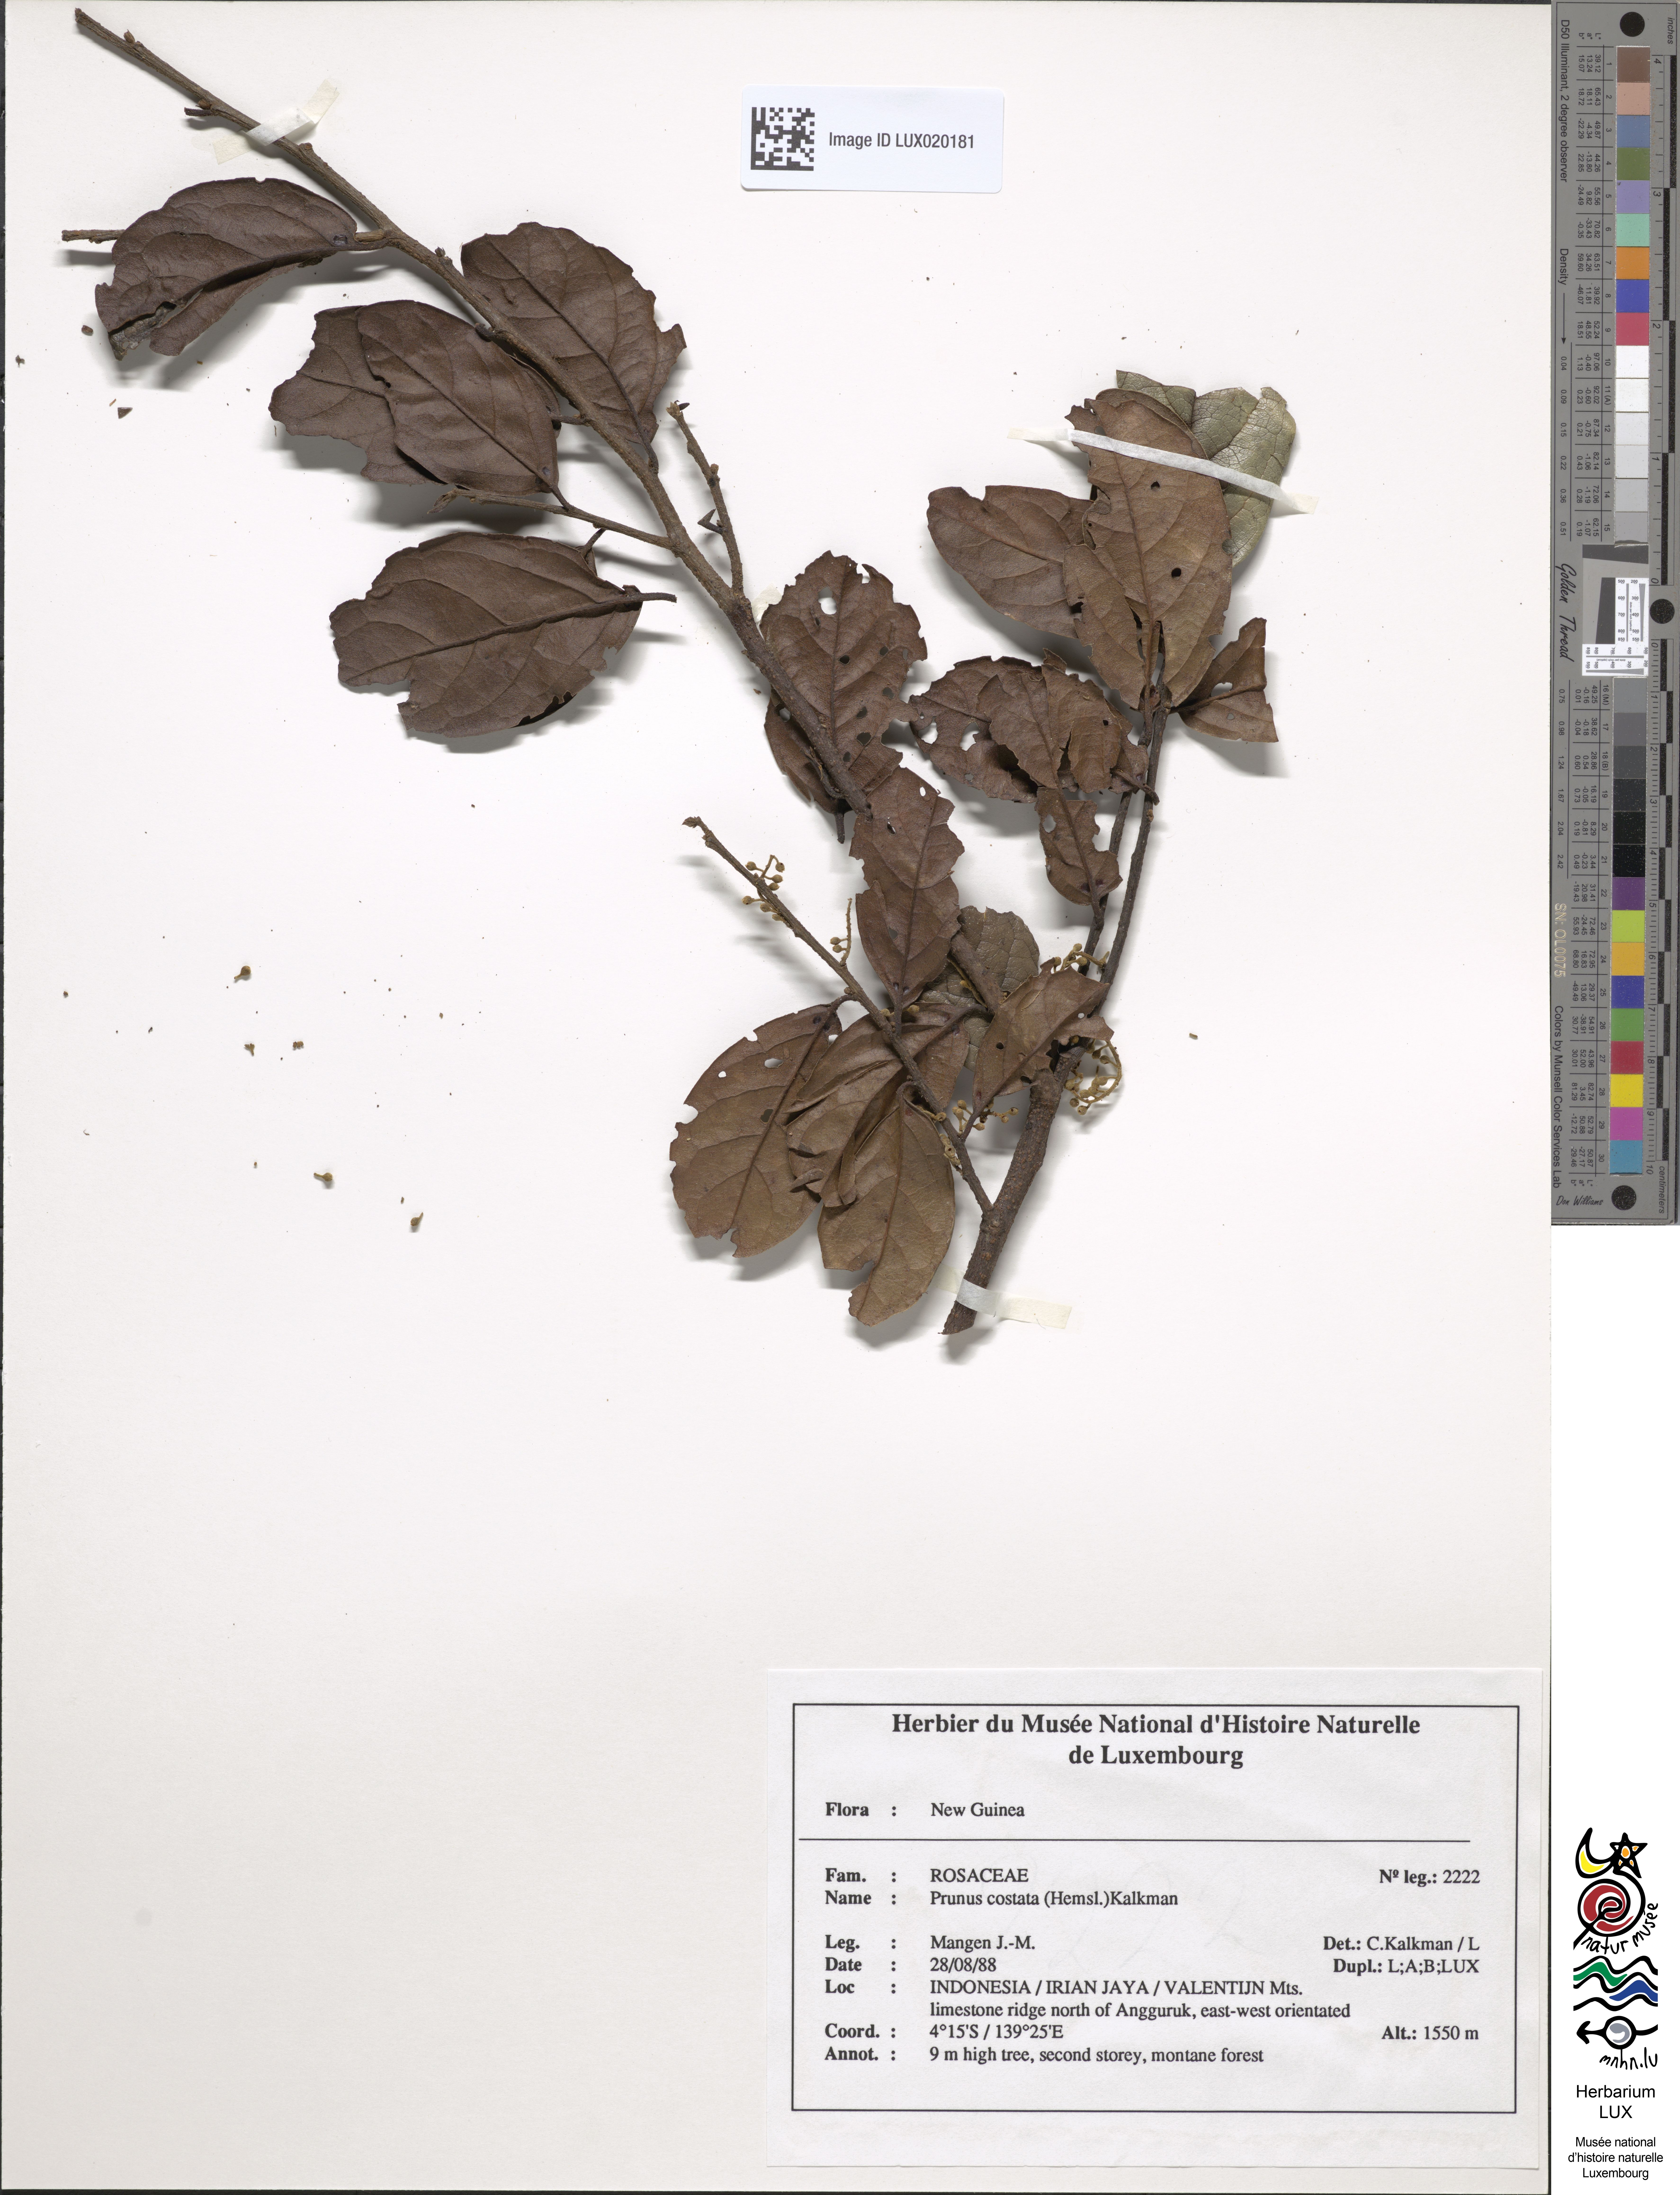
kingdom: Plantae
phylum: Tracheophyta
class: Magnoliopsida
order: Rosales
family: Rosaceae
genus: Prunus
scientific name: Prunus costata
